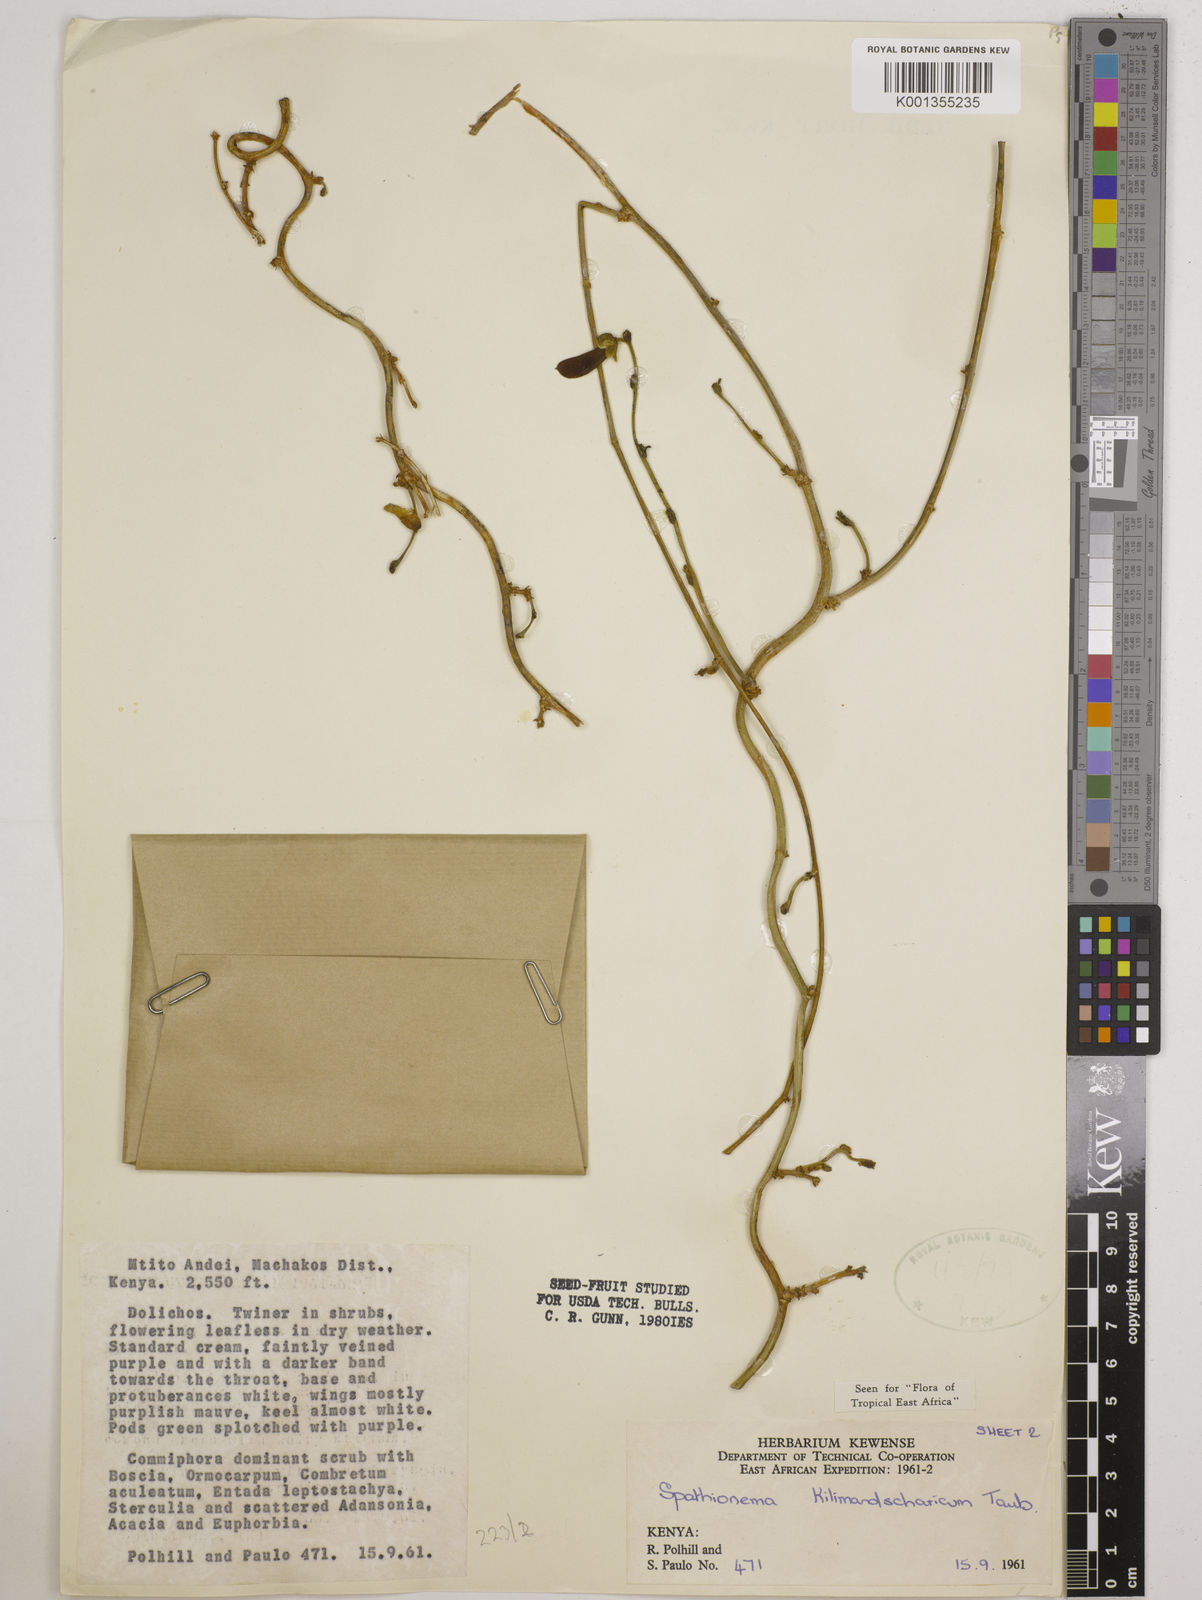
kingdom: Plantae
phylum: Tracheophyta
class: Magnoliopsida
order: Fabales
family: Fabaceae
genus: Spathionema
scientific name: Spathionema kilimandscharicum
